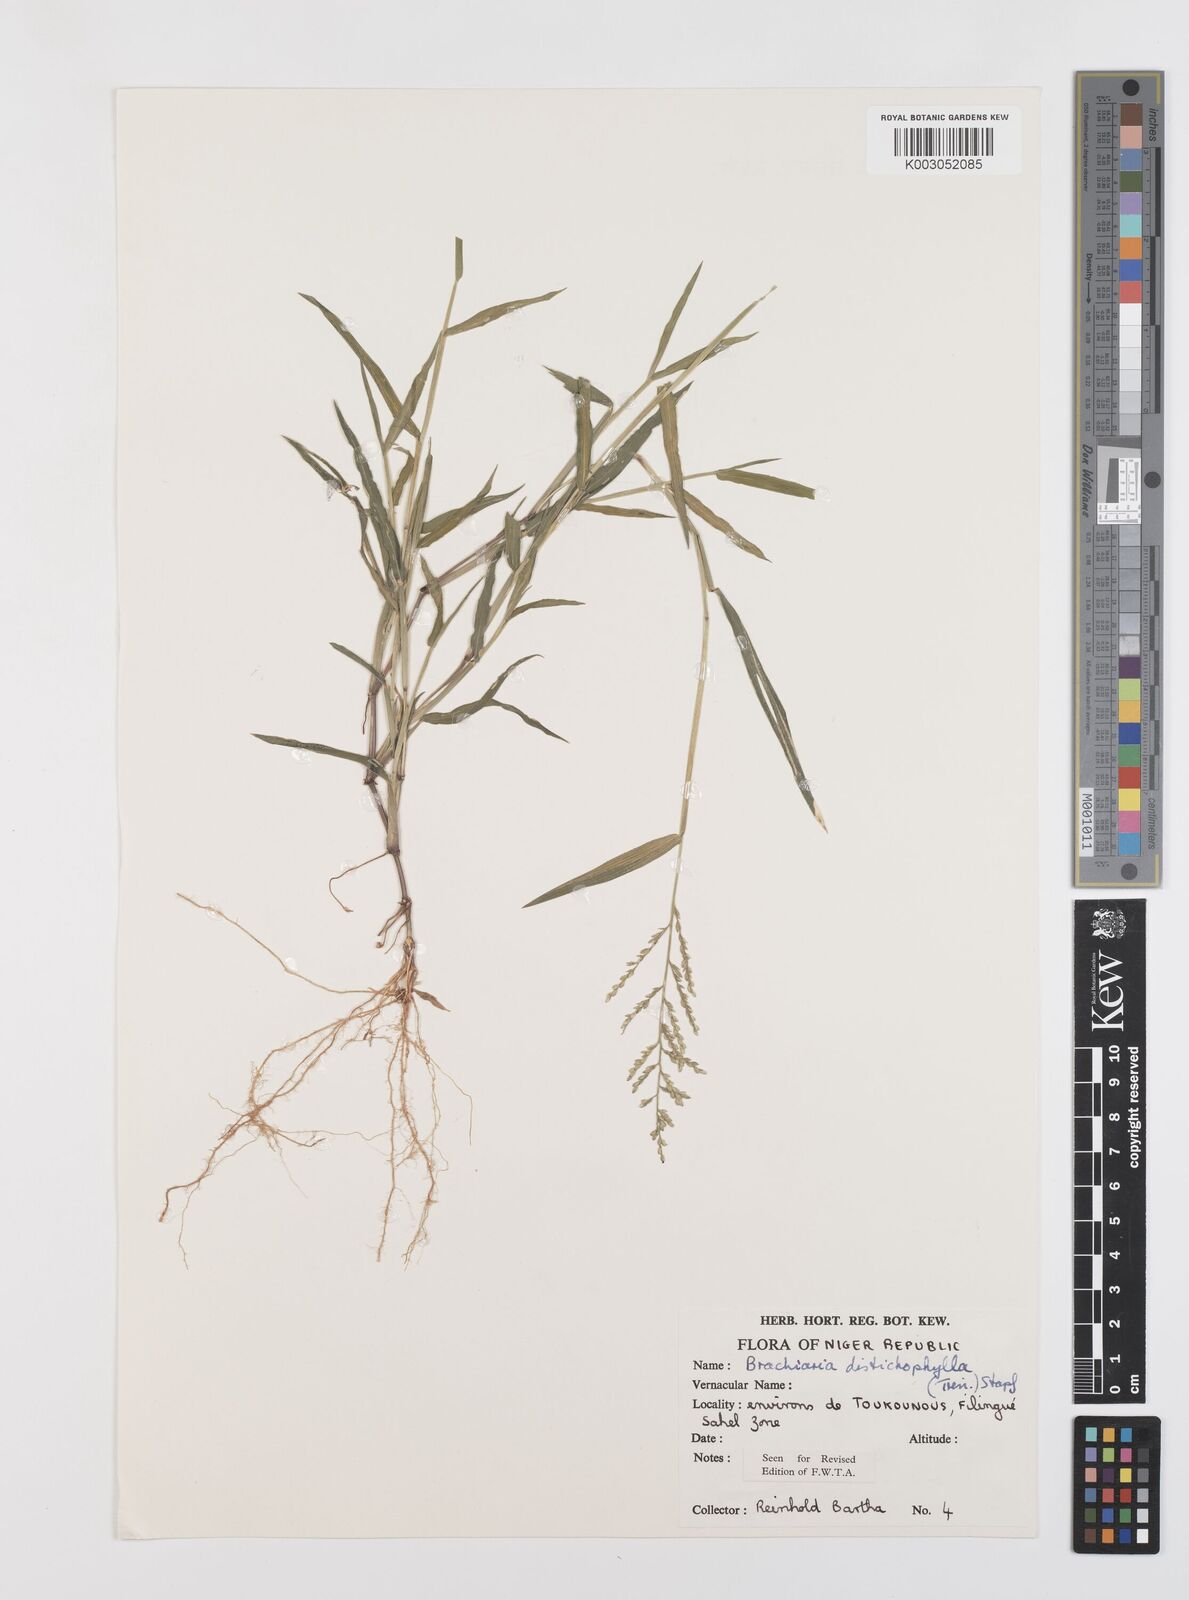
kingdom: Plantae
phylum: Tracheophyta
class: Liliopsida
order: Poales
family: Poaceae
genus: Urochloa
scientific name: Urochloa villosa
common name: Hairy signalgrass
